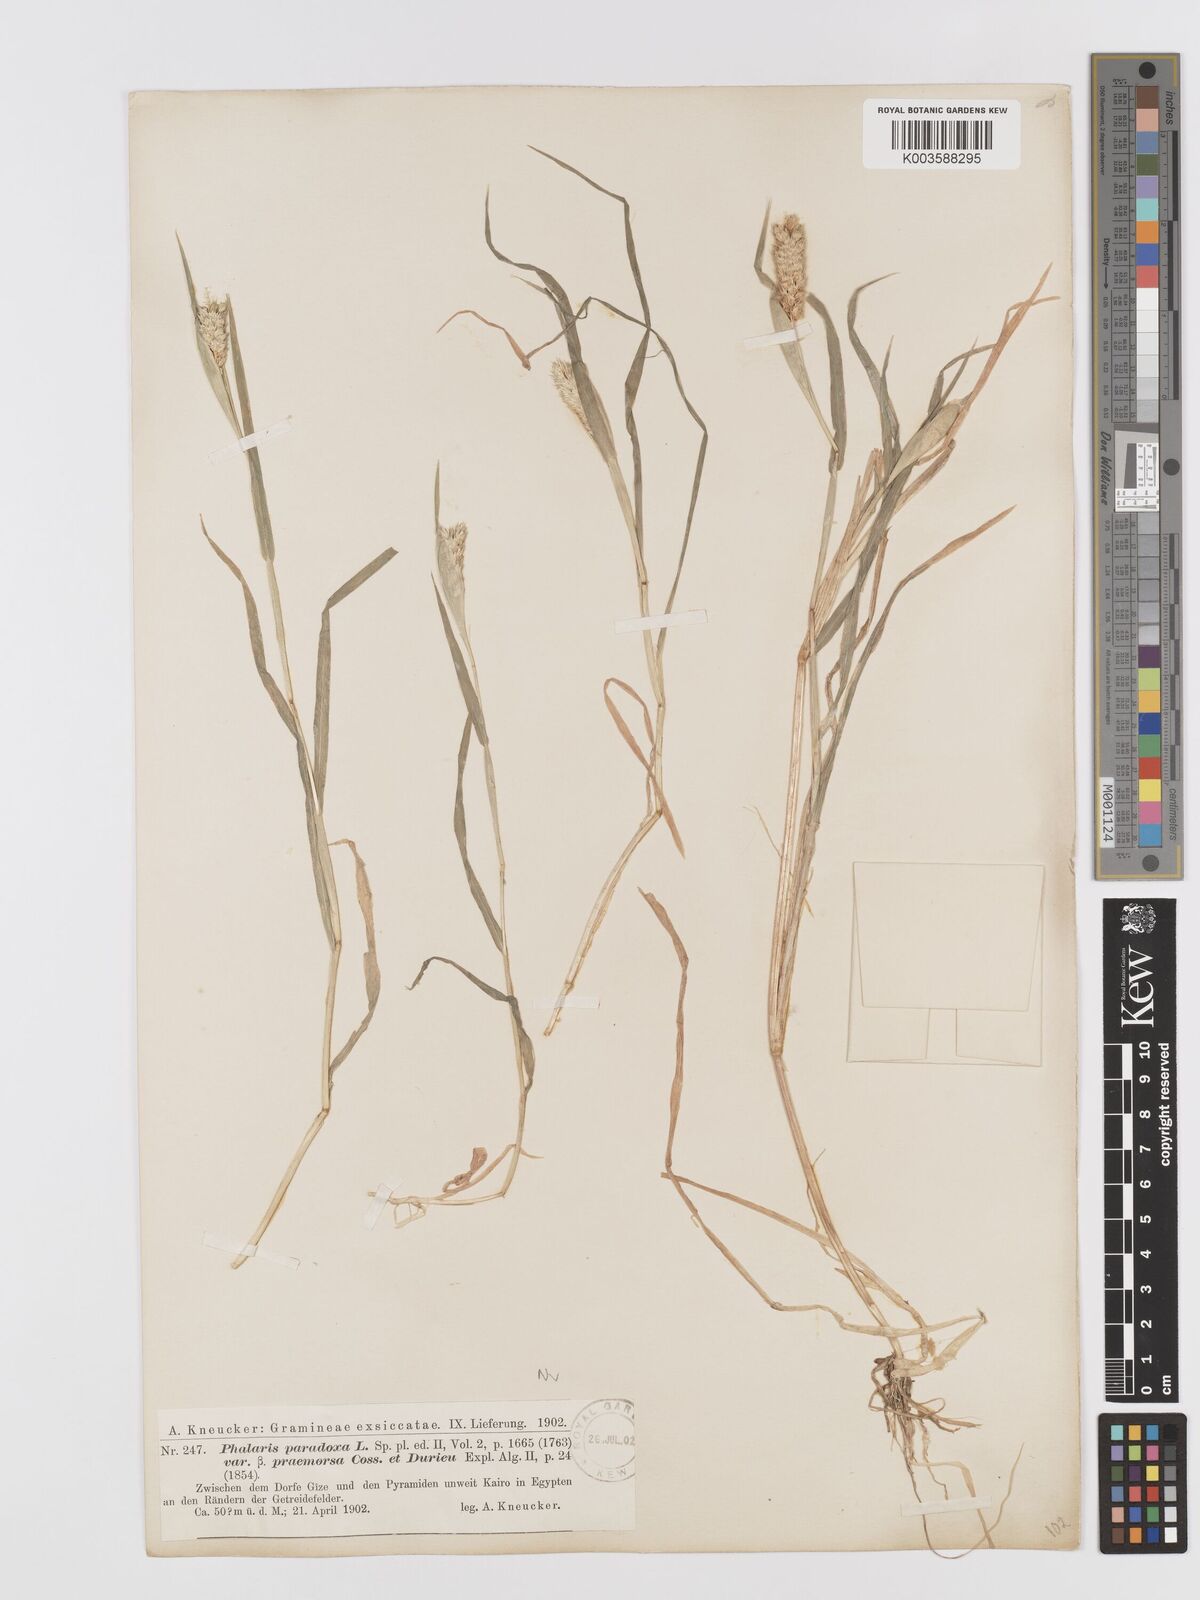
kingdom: Plantae
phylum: Tracheophyta
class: Liliopsida
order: Poales
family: Poaceae
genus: Phalaris
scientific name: Phalaris paradoxa
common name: Awned canary-grass
